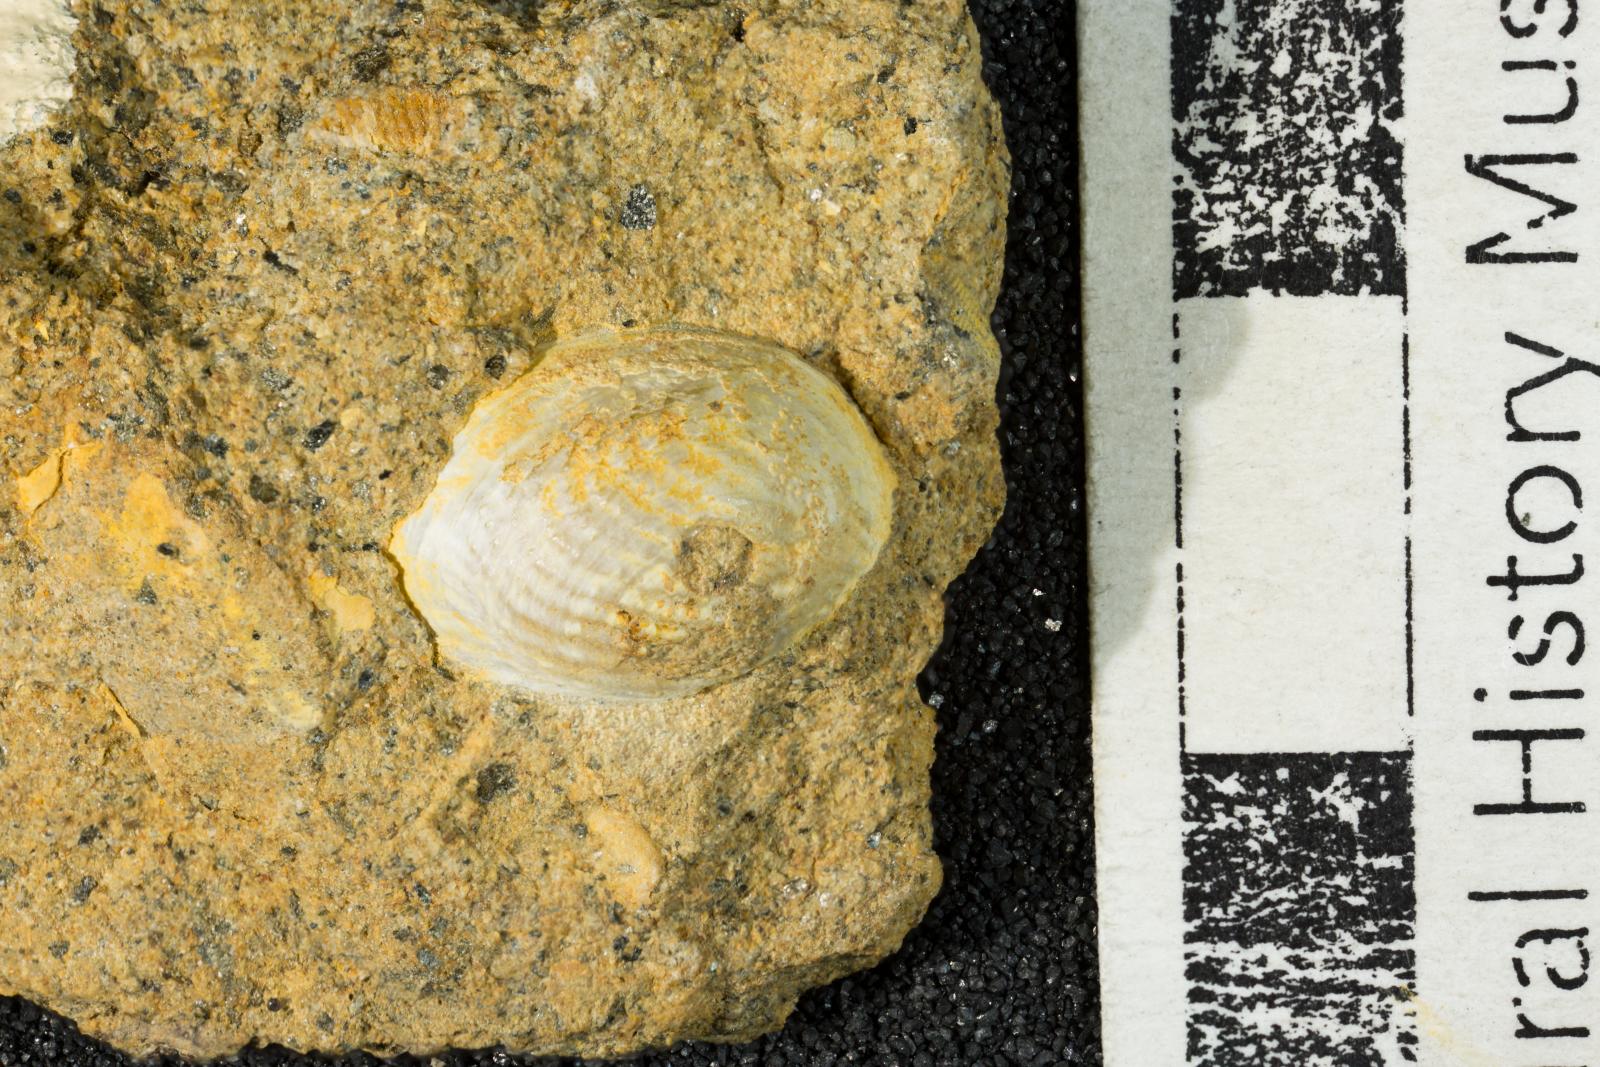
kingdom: Animalia
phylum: Mollusca
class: Bivalvia
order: Myida
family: Pholadidae
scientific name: Pholadidae
